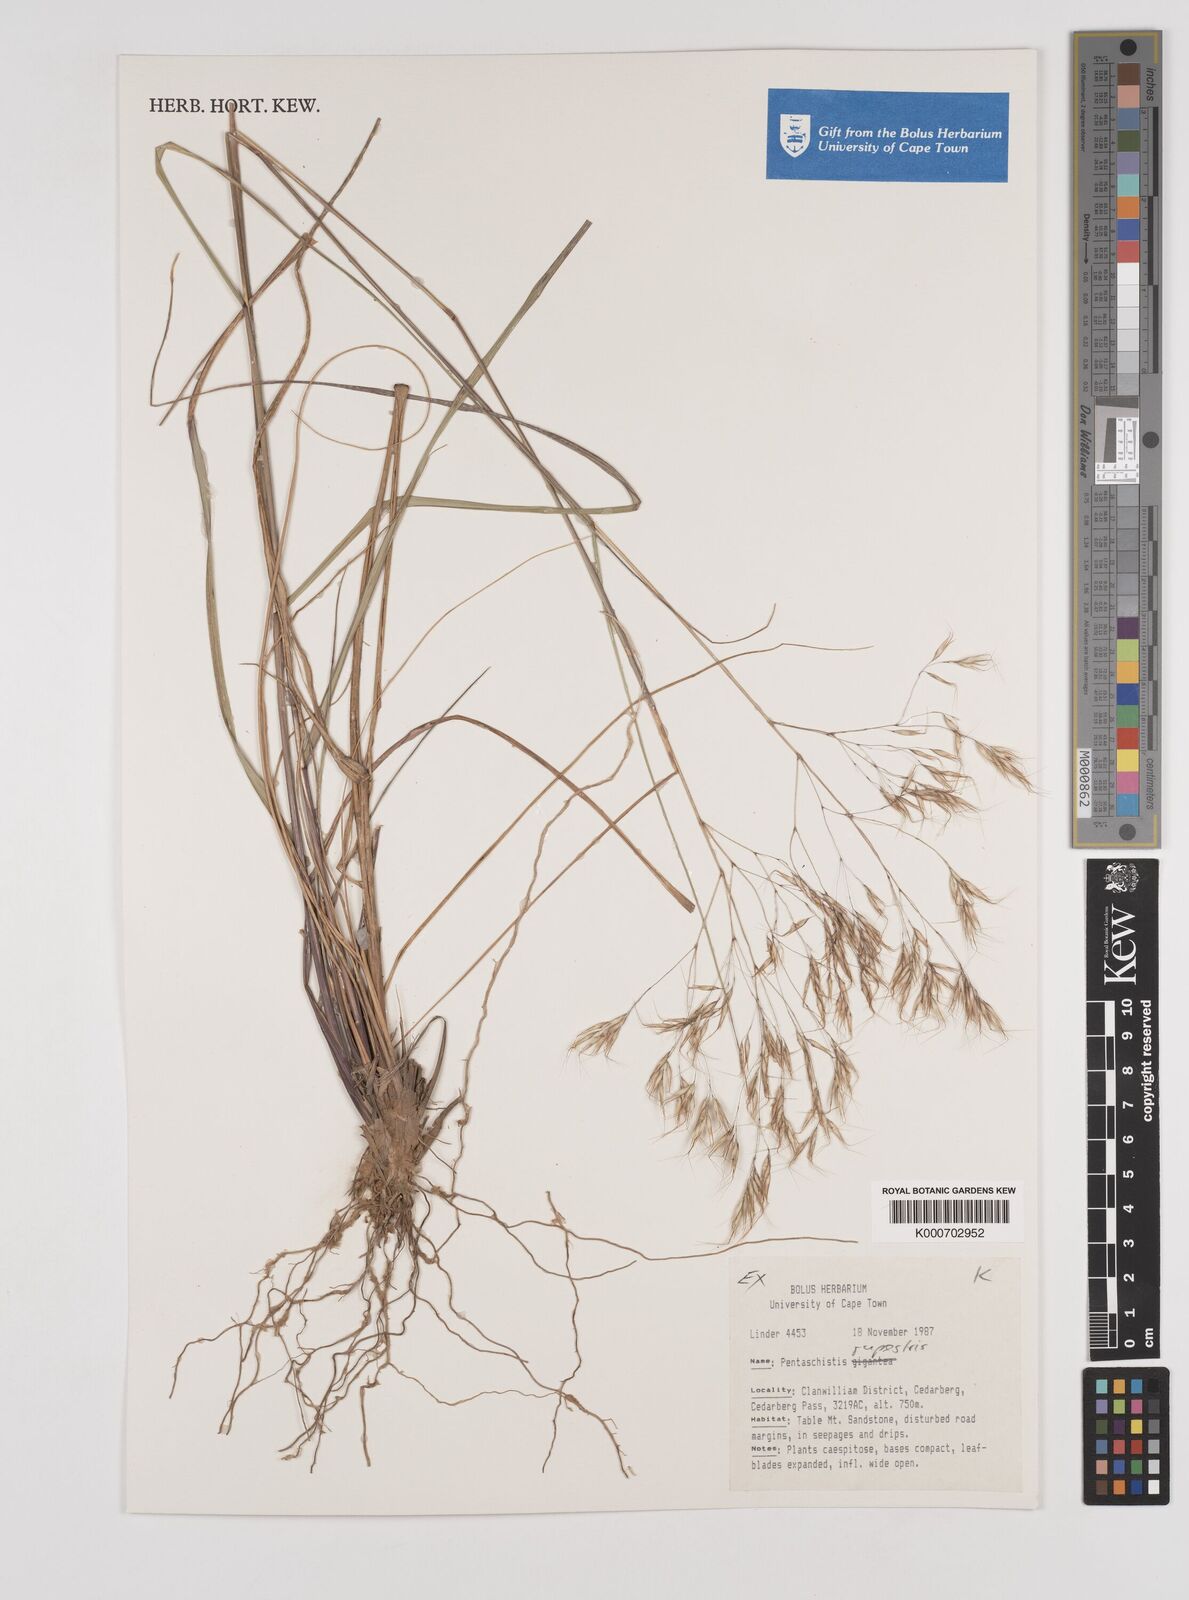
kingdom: Plantae
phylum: Tracheophyta
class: Liliopsida
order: Poales
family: Poaceae
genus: Pentameris
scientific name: Pentameris rupestris
